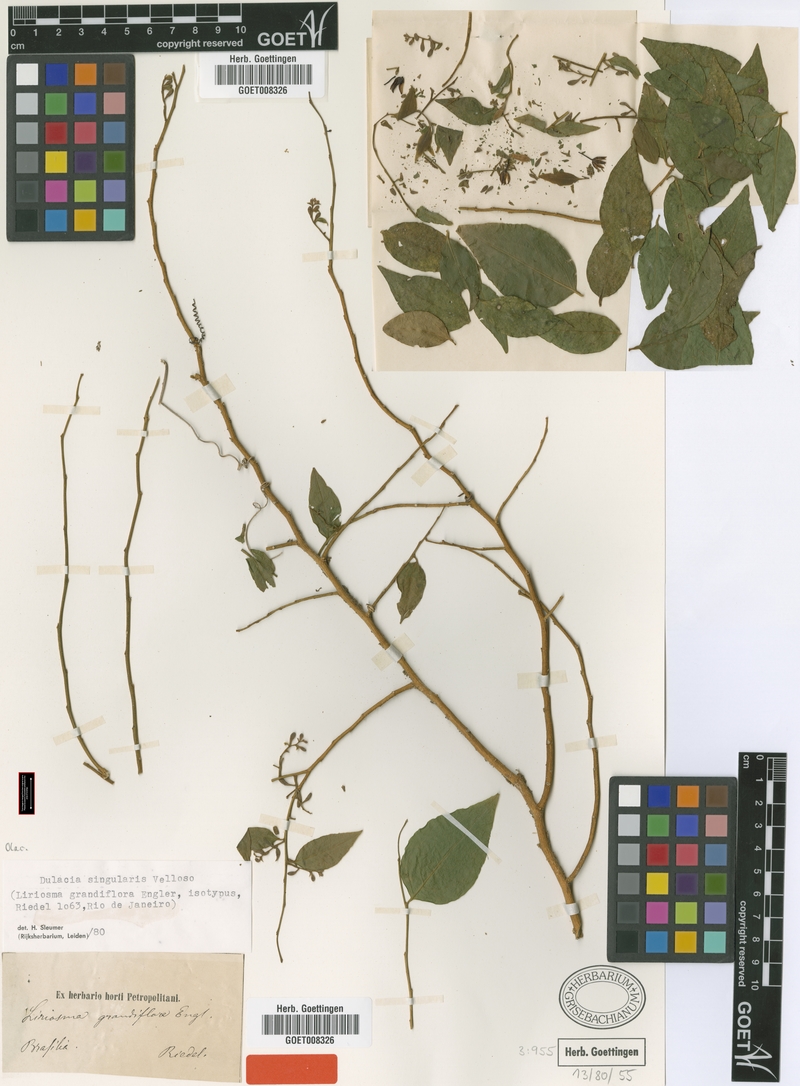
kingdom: Plantae
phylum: Tracheophyta
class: Magnoliopsida
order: Santalales
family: Olacaceae
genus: Dulacia
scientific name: Dulacia singularis
